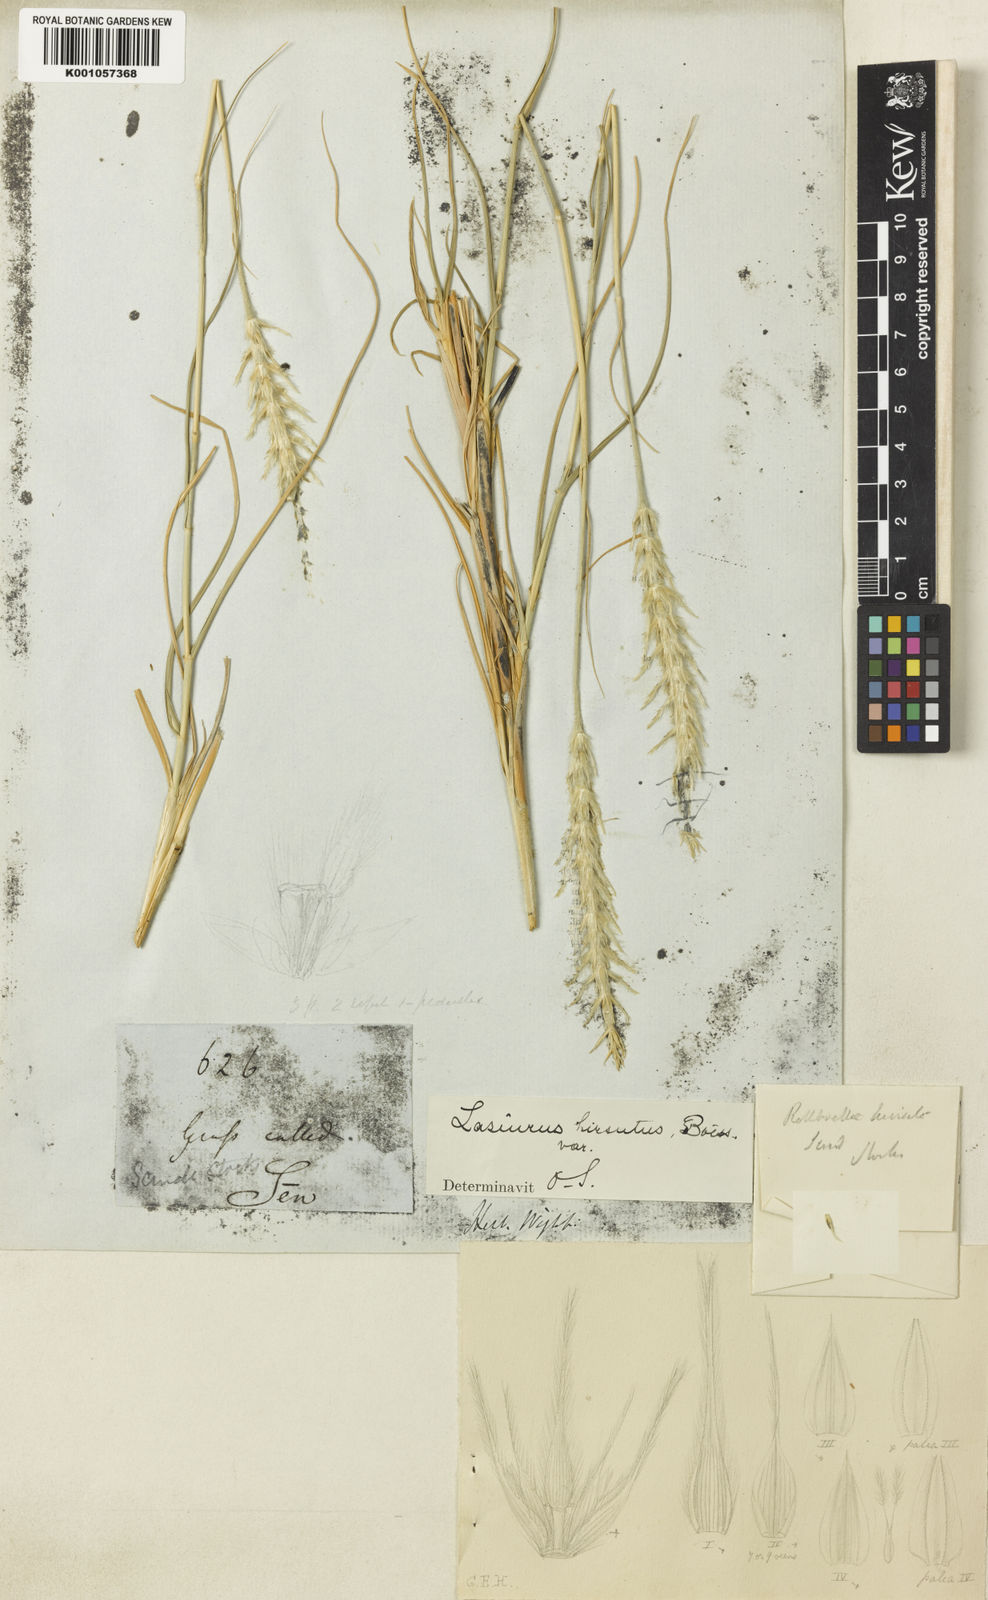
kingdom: Plantae
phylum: Tracheophyta
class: Liliopsida
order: Poales
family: Poaceae
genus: Lasiurus
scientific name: Lasiurus scindicus
